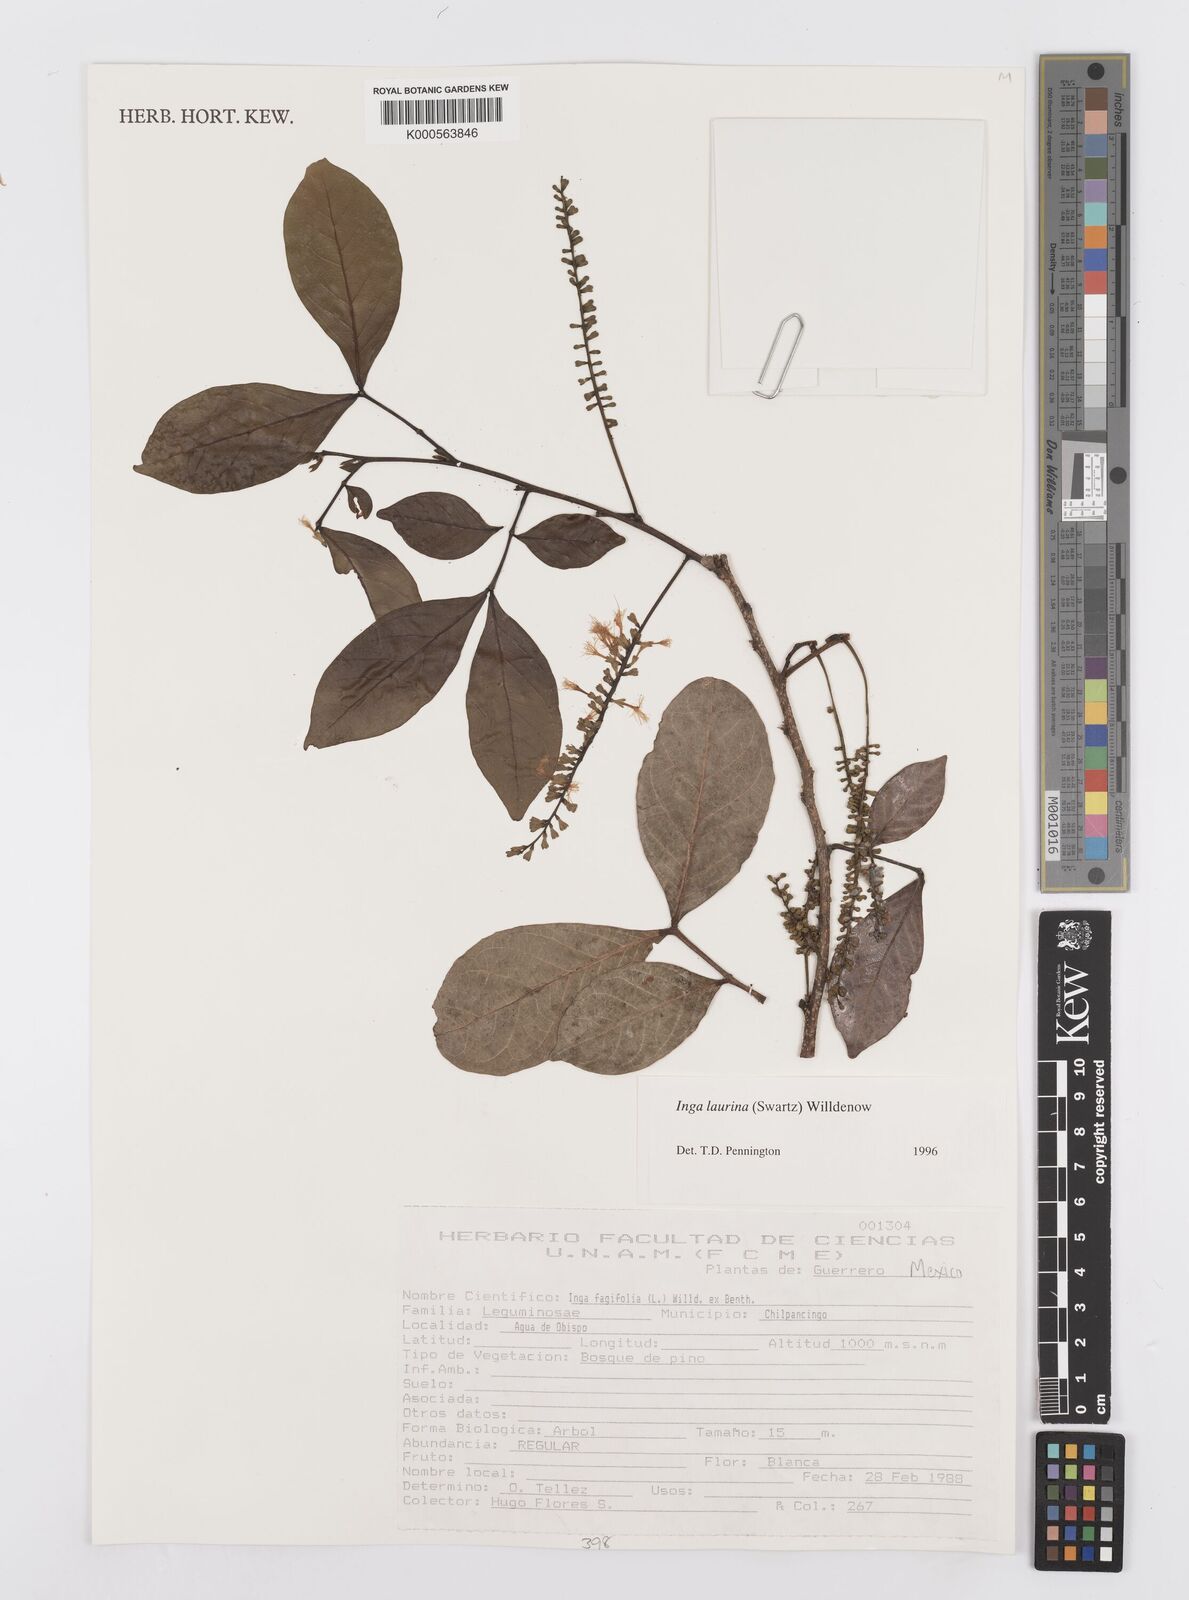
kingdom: Plantae
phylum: Tracheophyta
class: Magnoliopsida
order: Fabales
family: Fabaceae
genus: Inga
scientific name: Inga laurina
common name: Red wood
